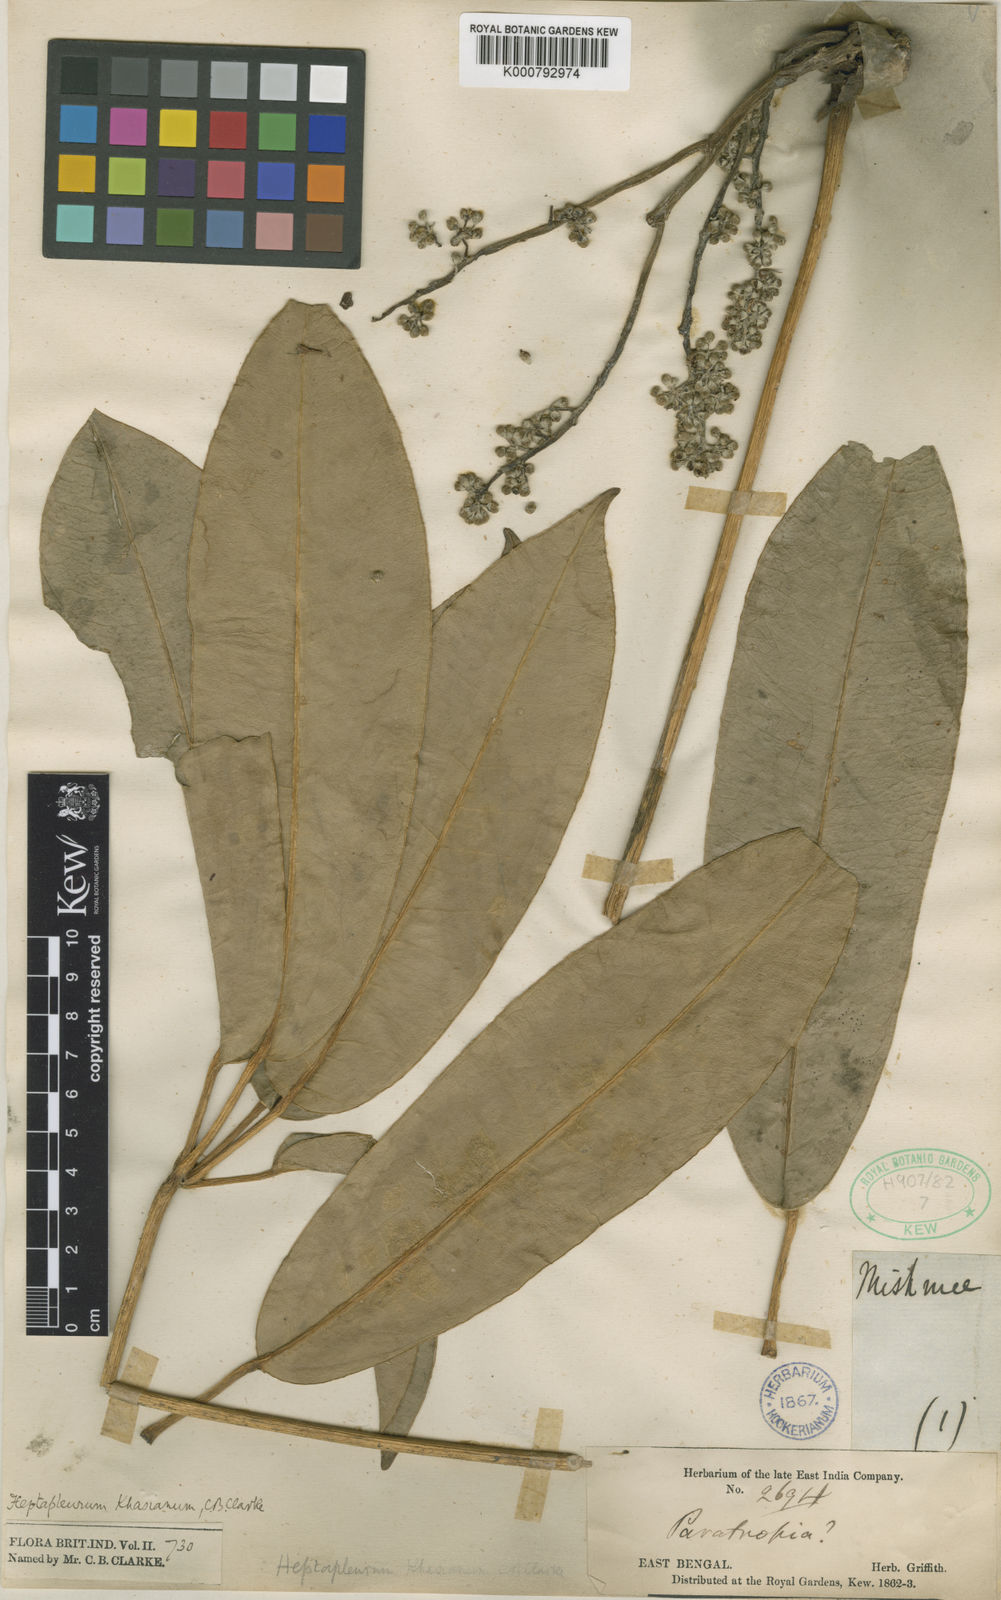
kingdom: Plantae
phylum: Tracheophyta
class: Magnoliopsida
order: Apiales
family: Araliaceae
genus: Heptapleurum
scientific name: Heptapleurum wallichianum
